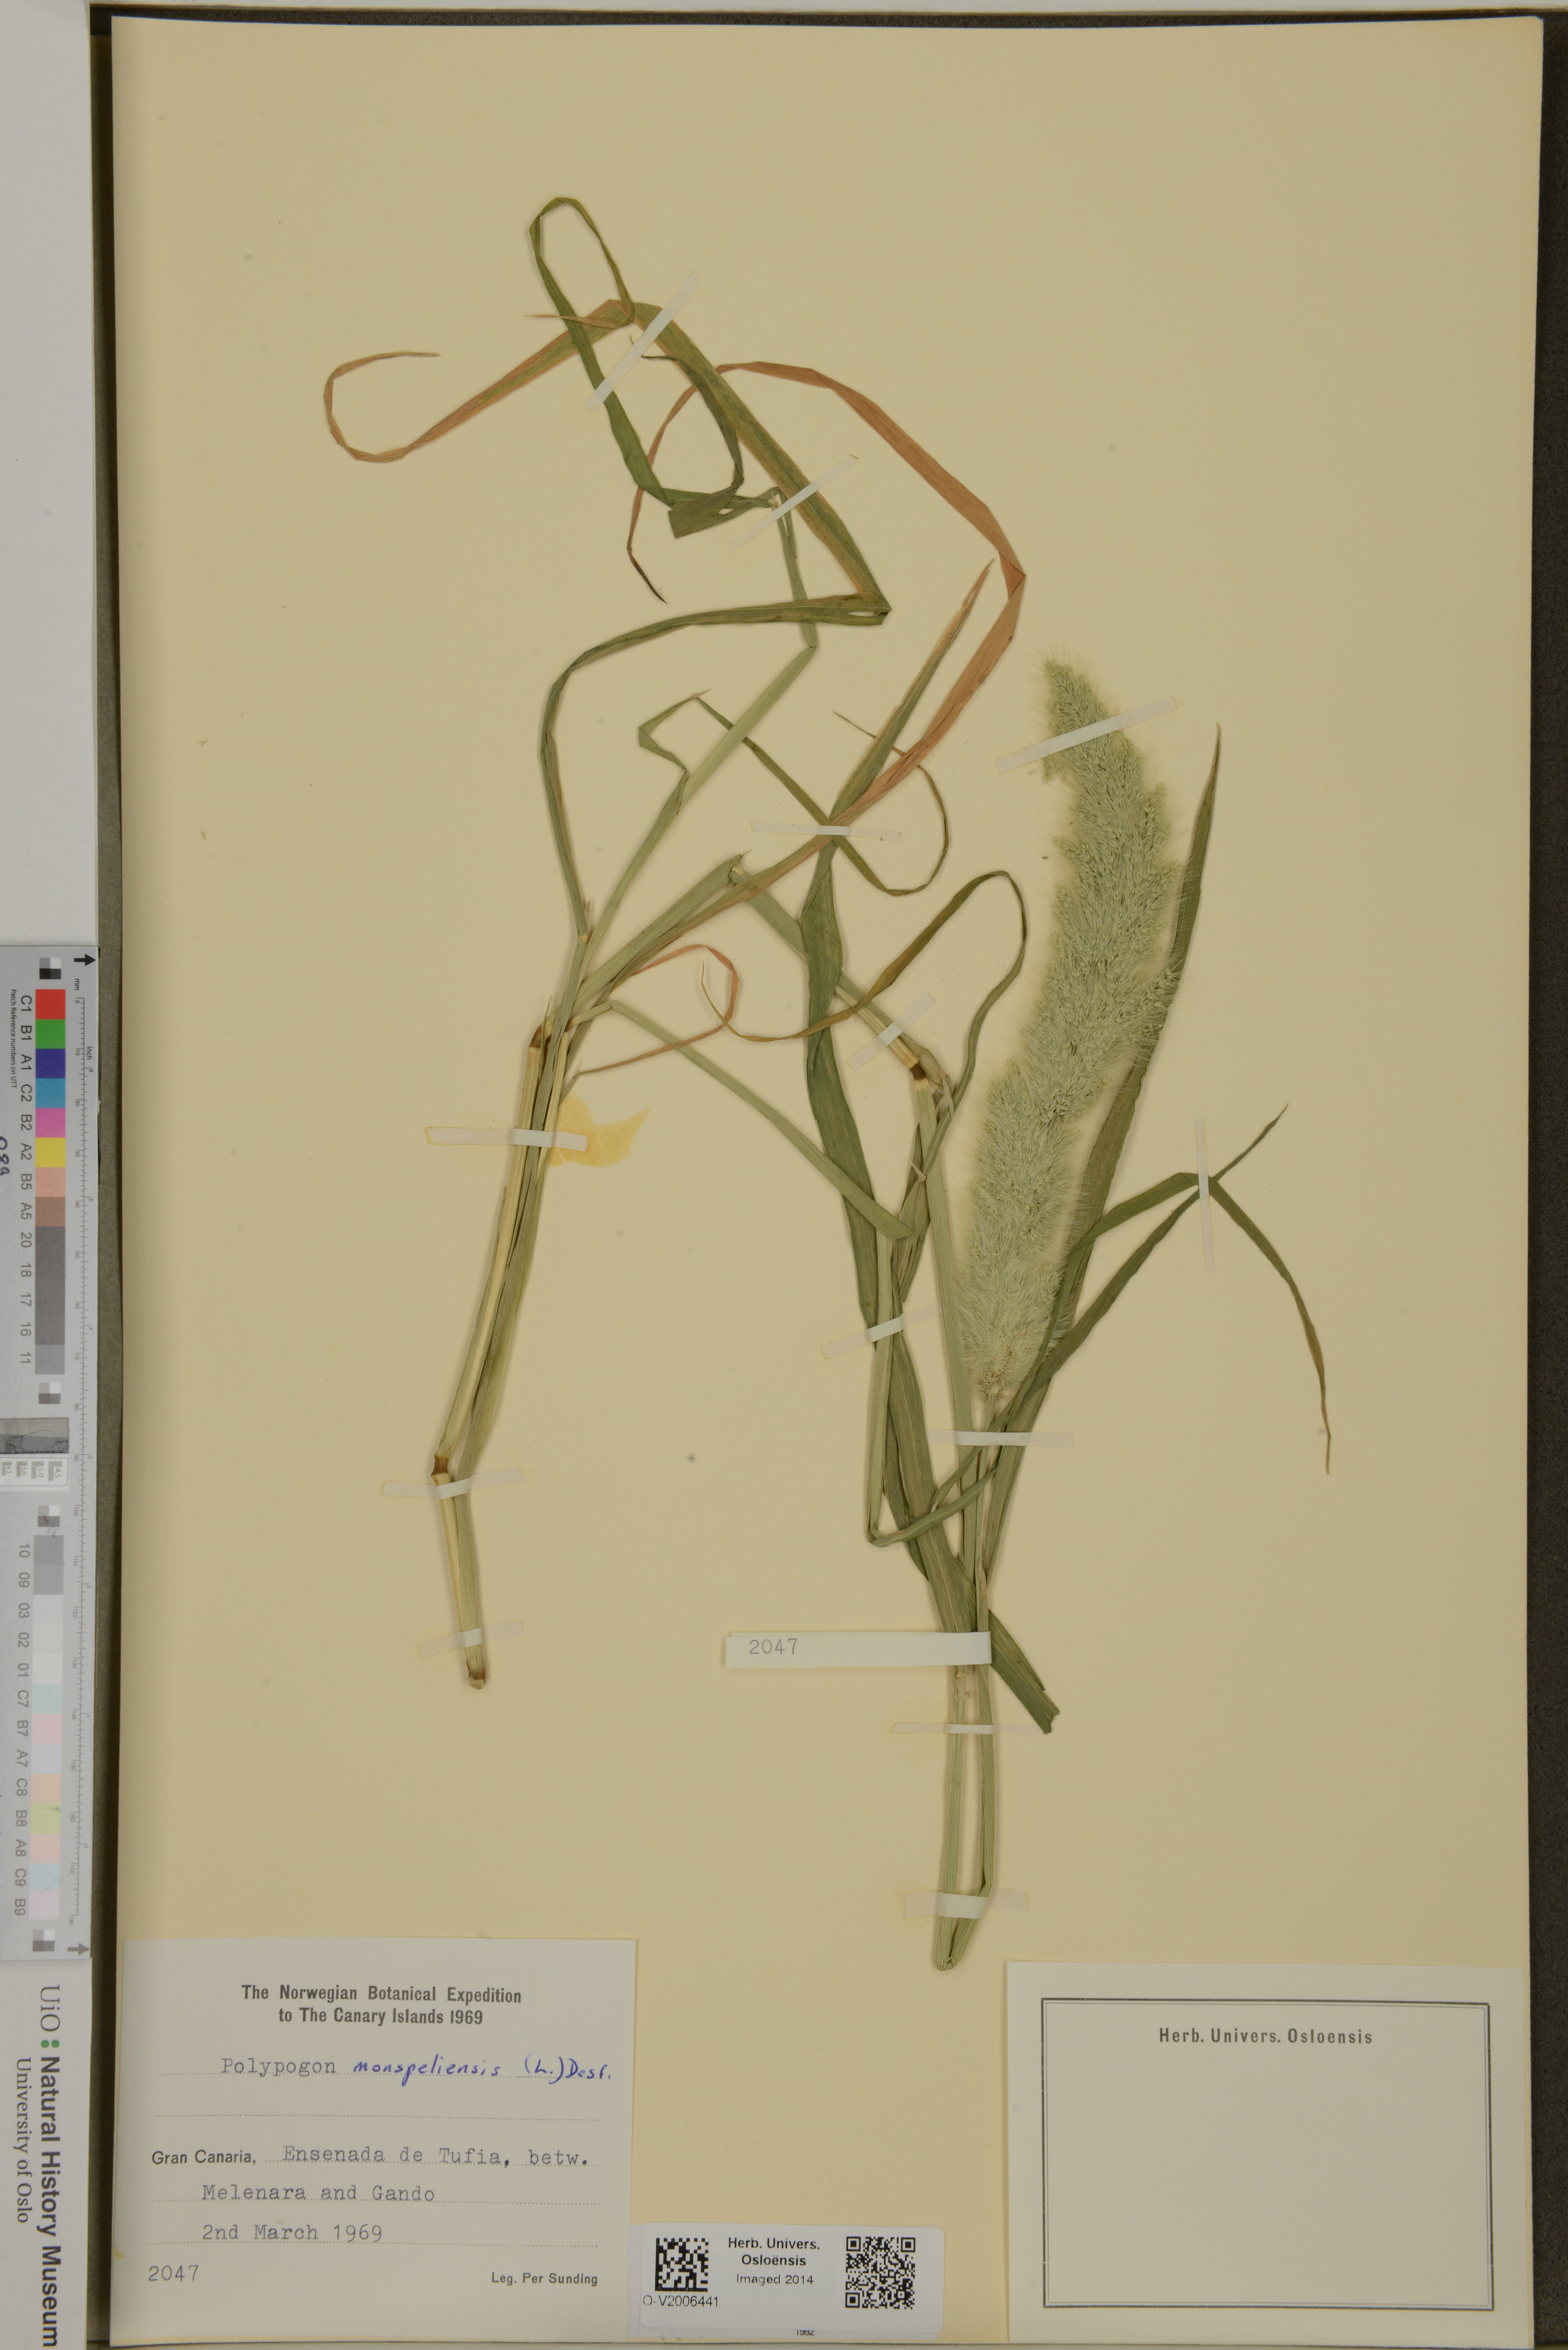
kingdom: Plantae
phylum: Tracheophyta
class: Liliopsida
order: Poales
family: Poaceae
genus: Polypogon
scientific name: Polypogon monspeliensis
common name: Annual rabbitsfoot grass
